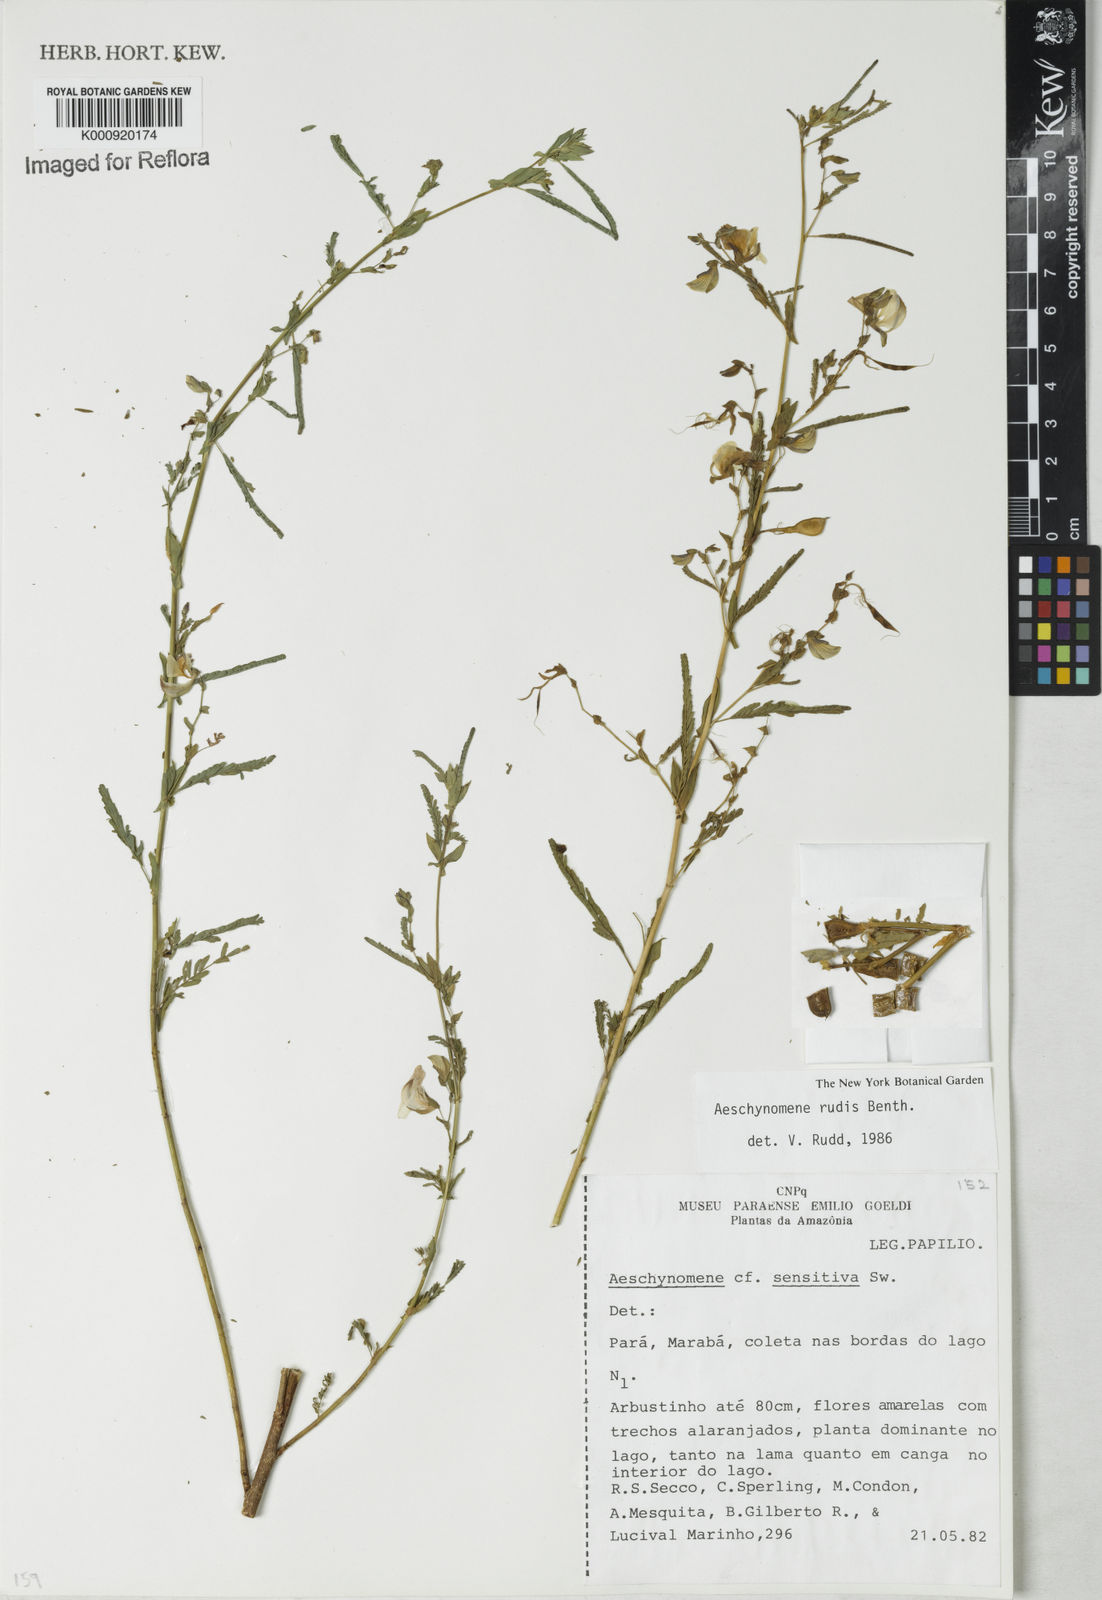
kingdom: Plantae
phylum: Tracheophyta
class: Magnoliopsida
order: Fabales
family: Fabaceae
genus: Aeschynomene
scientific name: Aeschynomene rudis
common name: Rough joint-vetch
